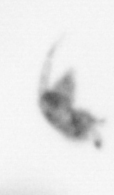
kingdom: Animalia
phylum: Arthropoda
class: Copepoda
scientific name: Copepoda
